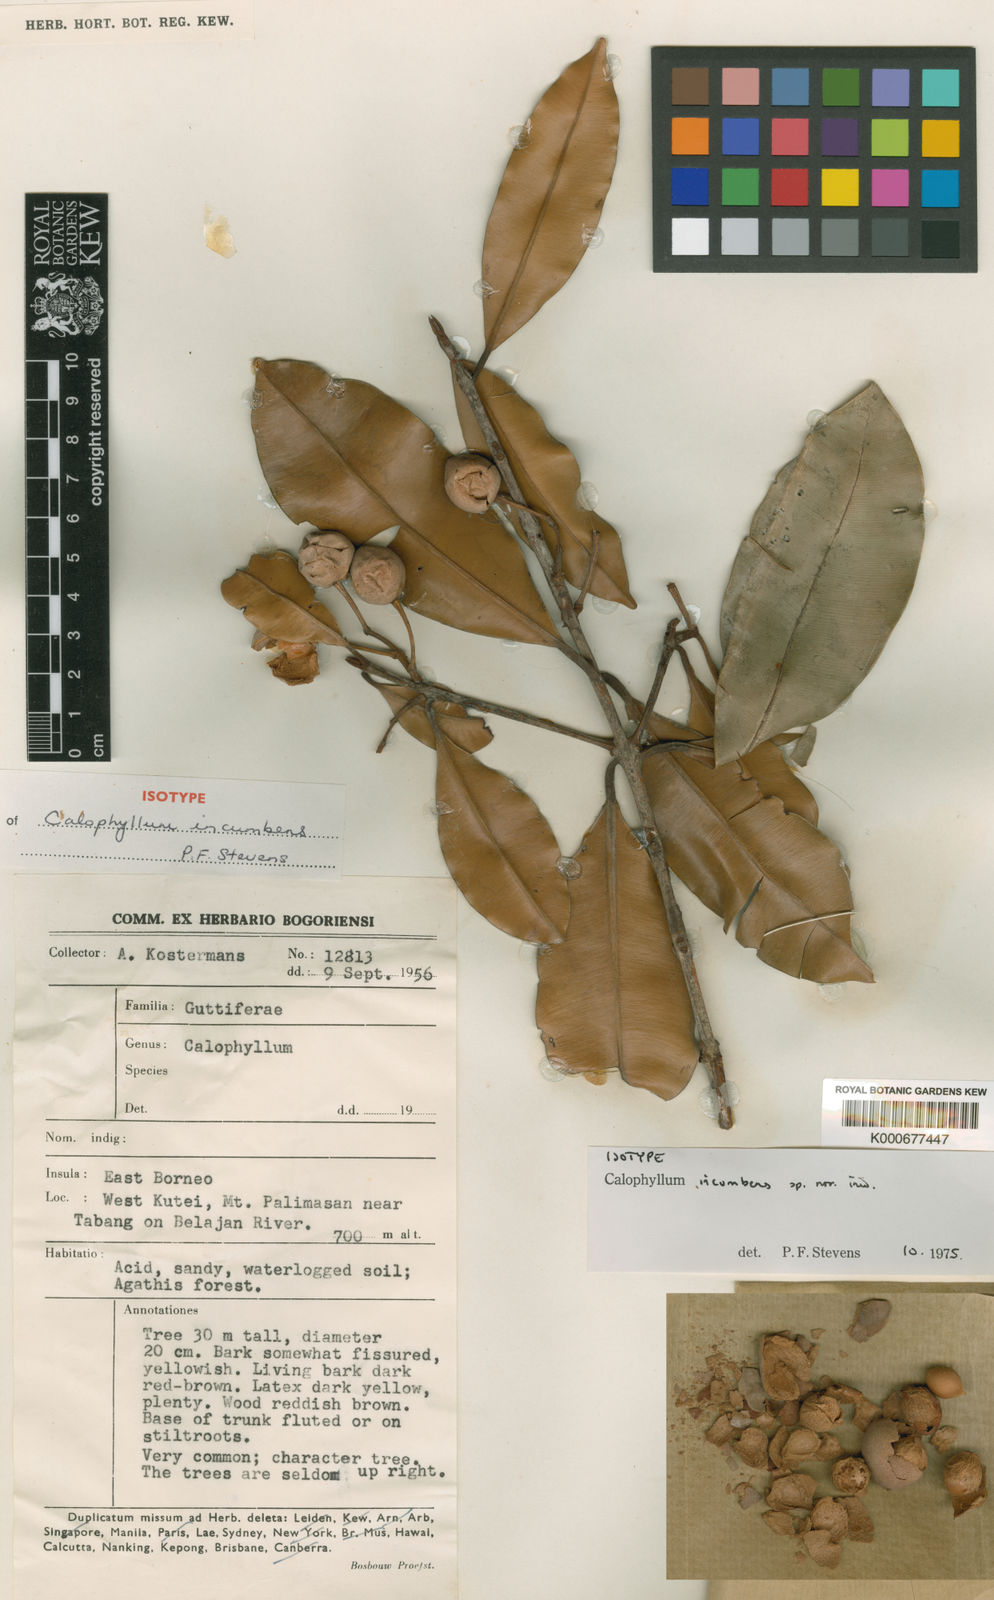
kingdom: Plantae
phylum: Tracheophyta
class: Magnoliopsida
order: Malpighiales
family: Calophyllaceae
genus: Calophyllum
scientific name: Calophyllum incumbens
